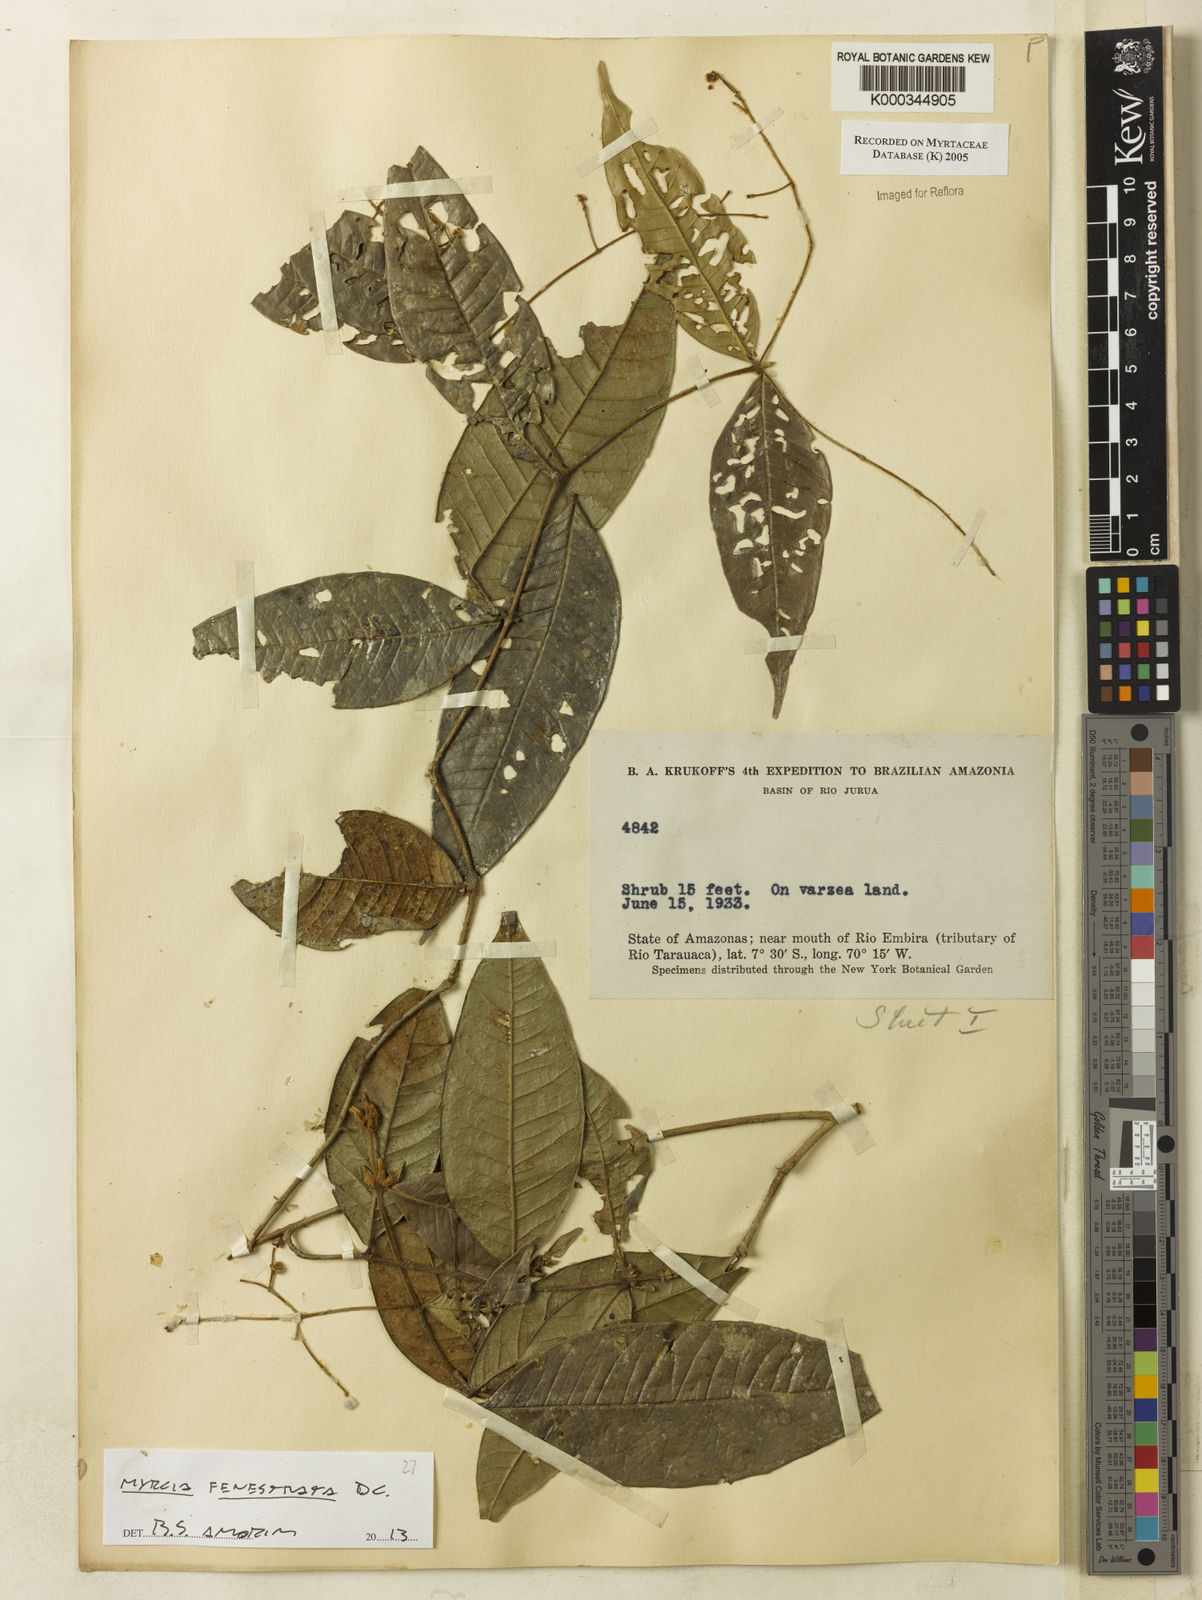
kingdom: Plantae
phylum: Tracheophyta
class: Magnoliopsida
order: Myrtales
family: Myrtaceae
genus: Myrcia
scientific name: Myrcia
